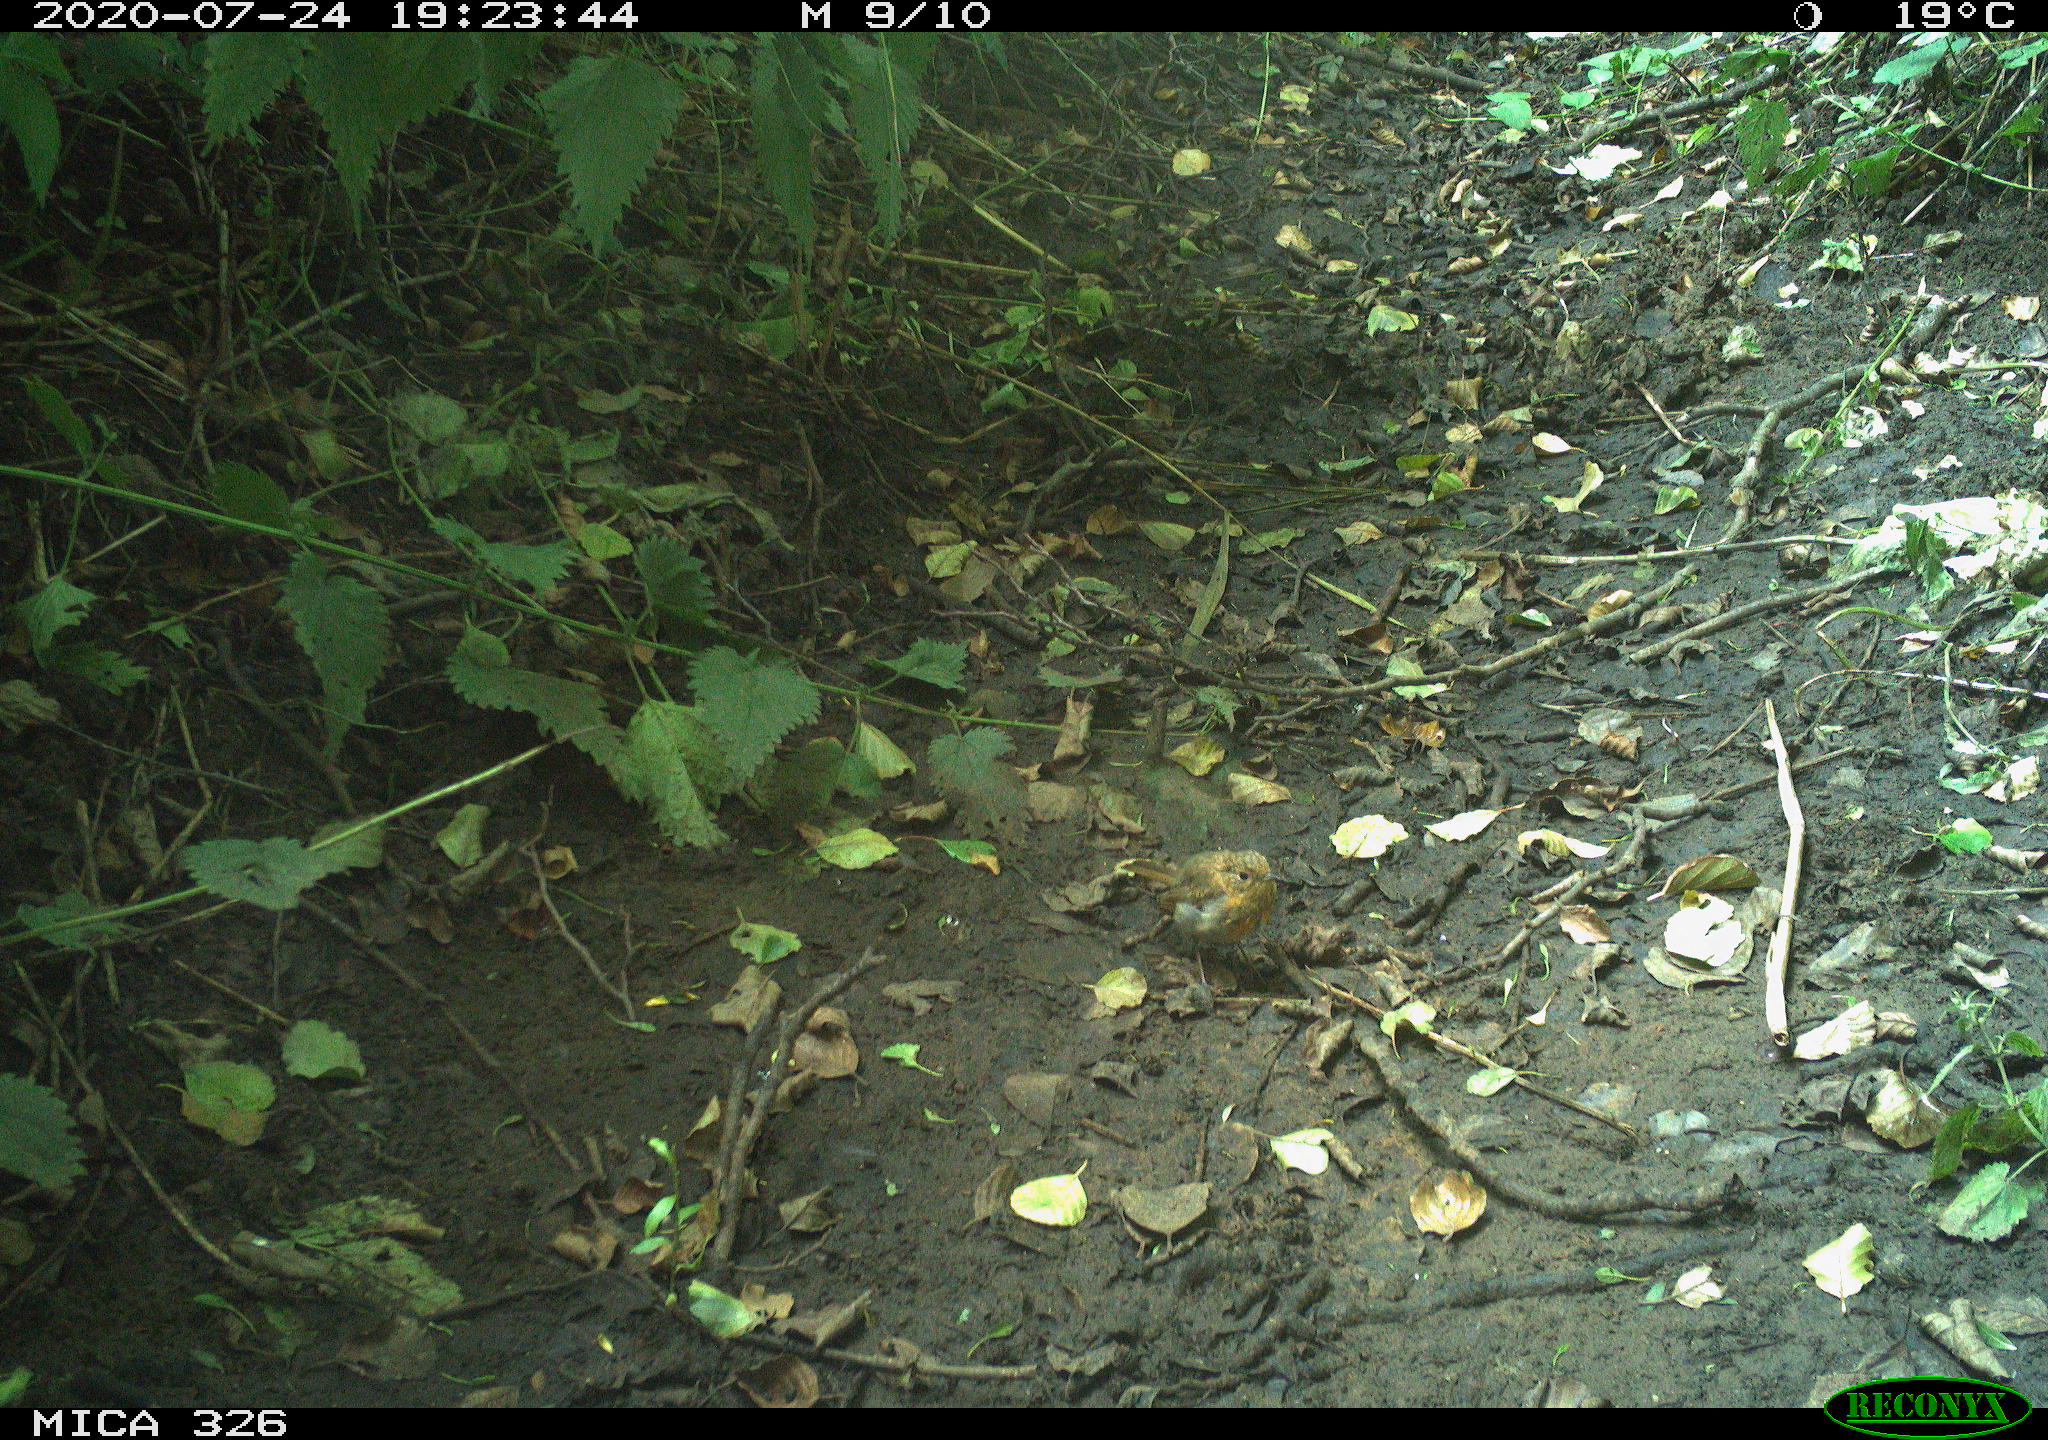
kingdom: Animalia
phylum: Chordata
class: Aves
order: Passeriformes
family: Muscicapidae
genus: Erithacus
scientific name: Erithacus rubecula
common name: European robin
